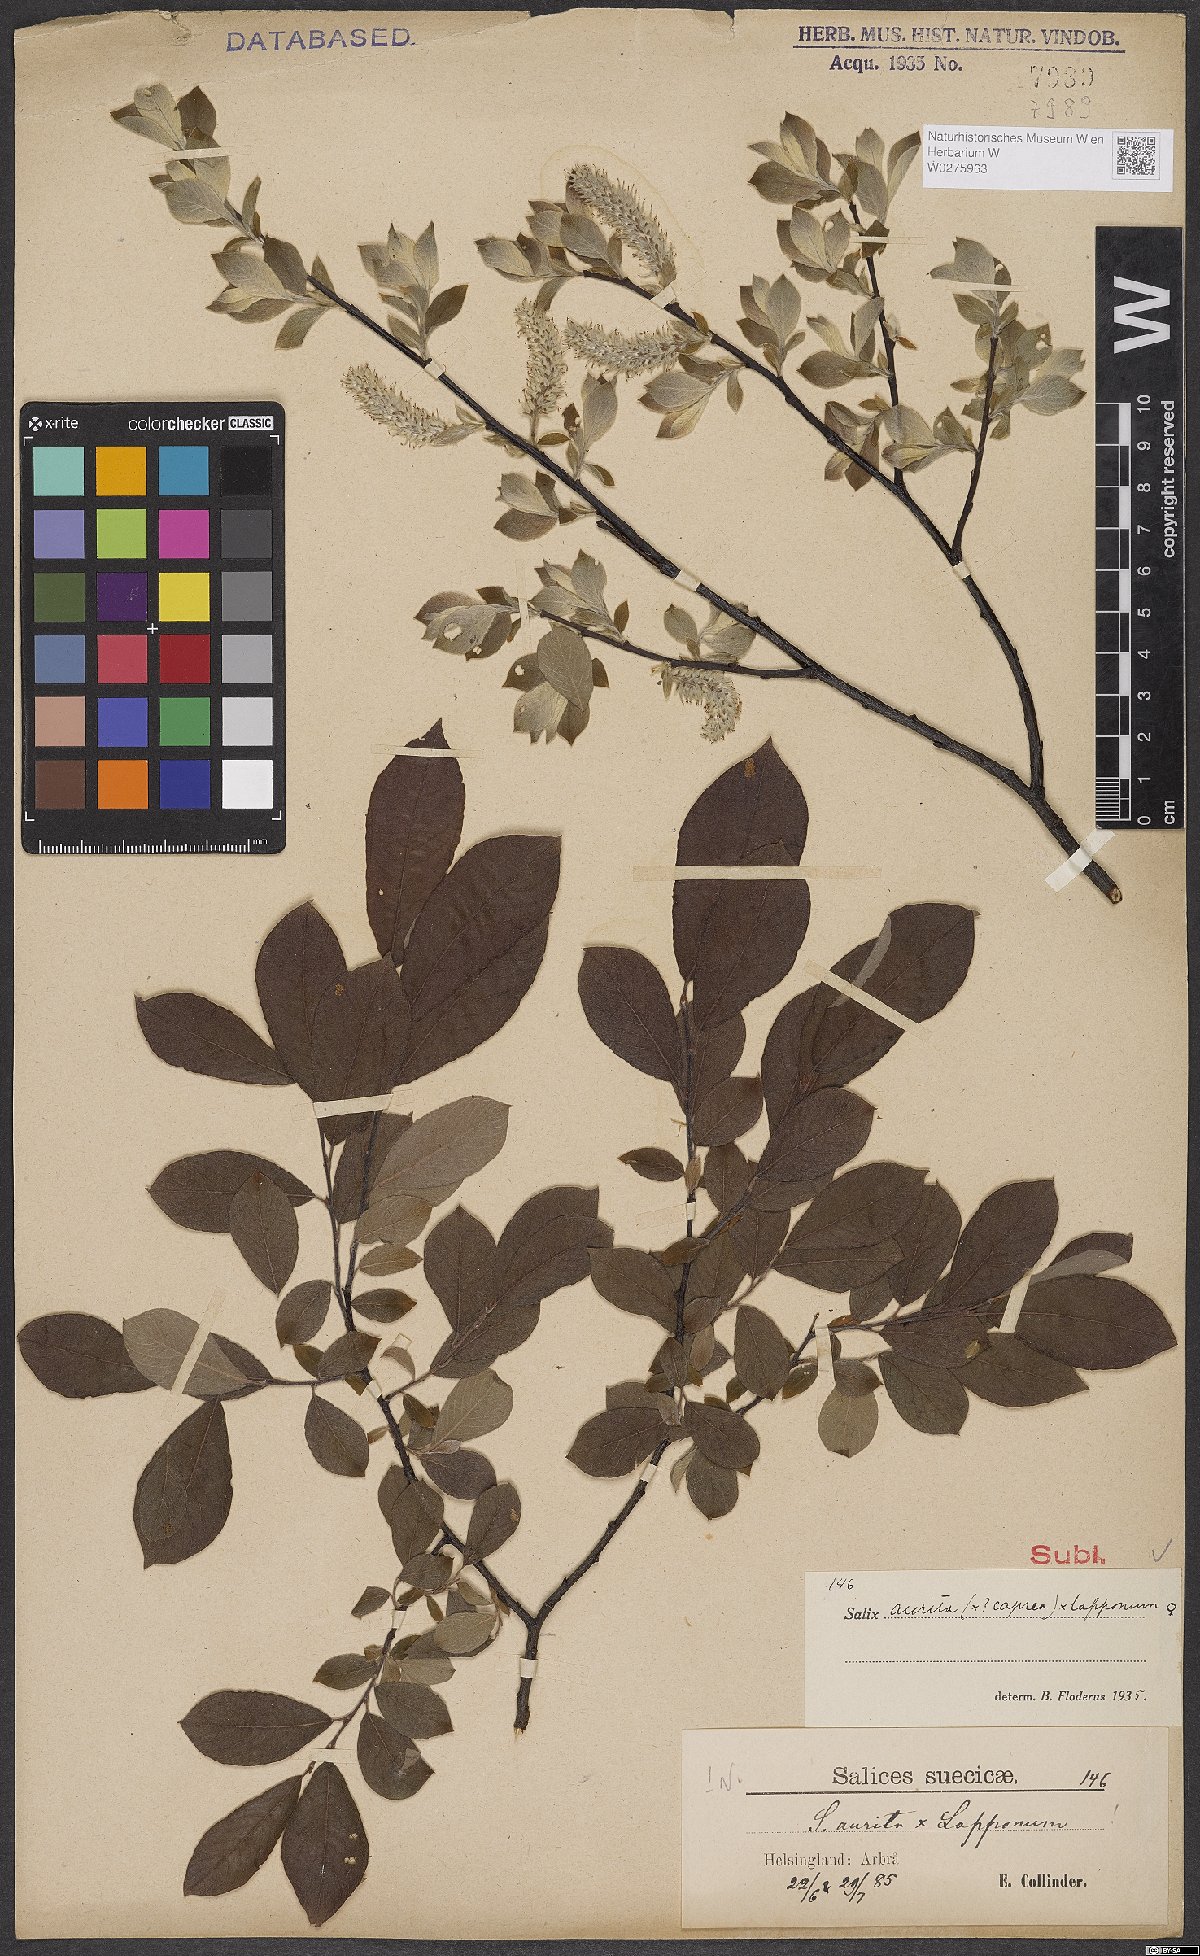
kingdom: Plantae
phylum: Tracheophyta
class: Magnoliopsida
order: Malpighiales
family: Salicaceae
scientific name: Salicaceae
